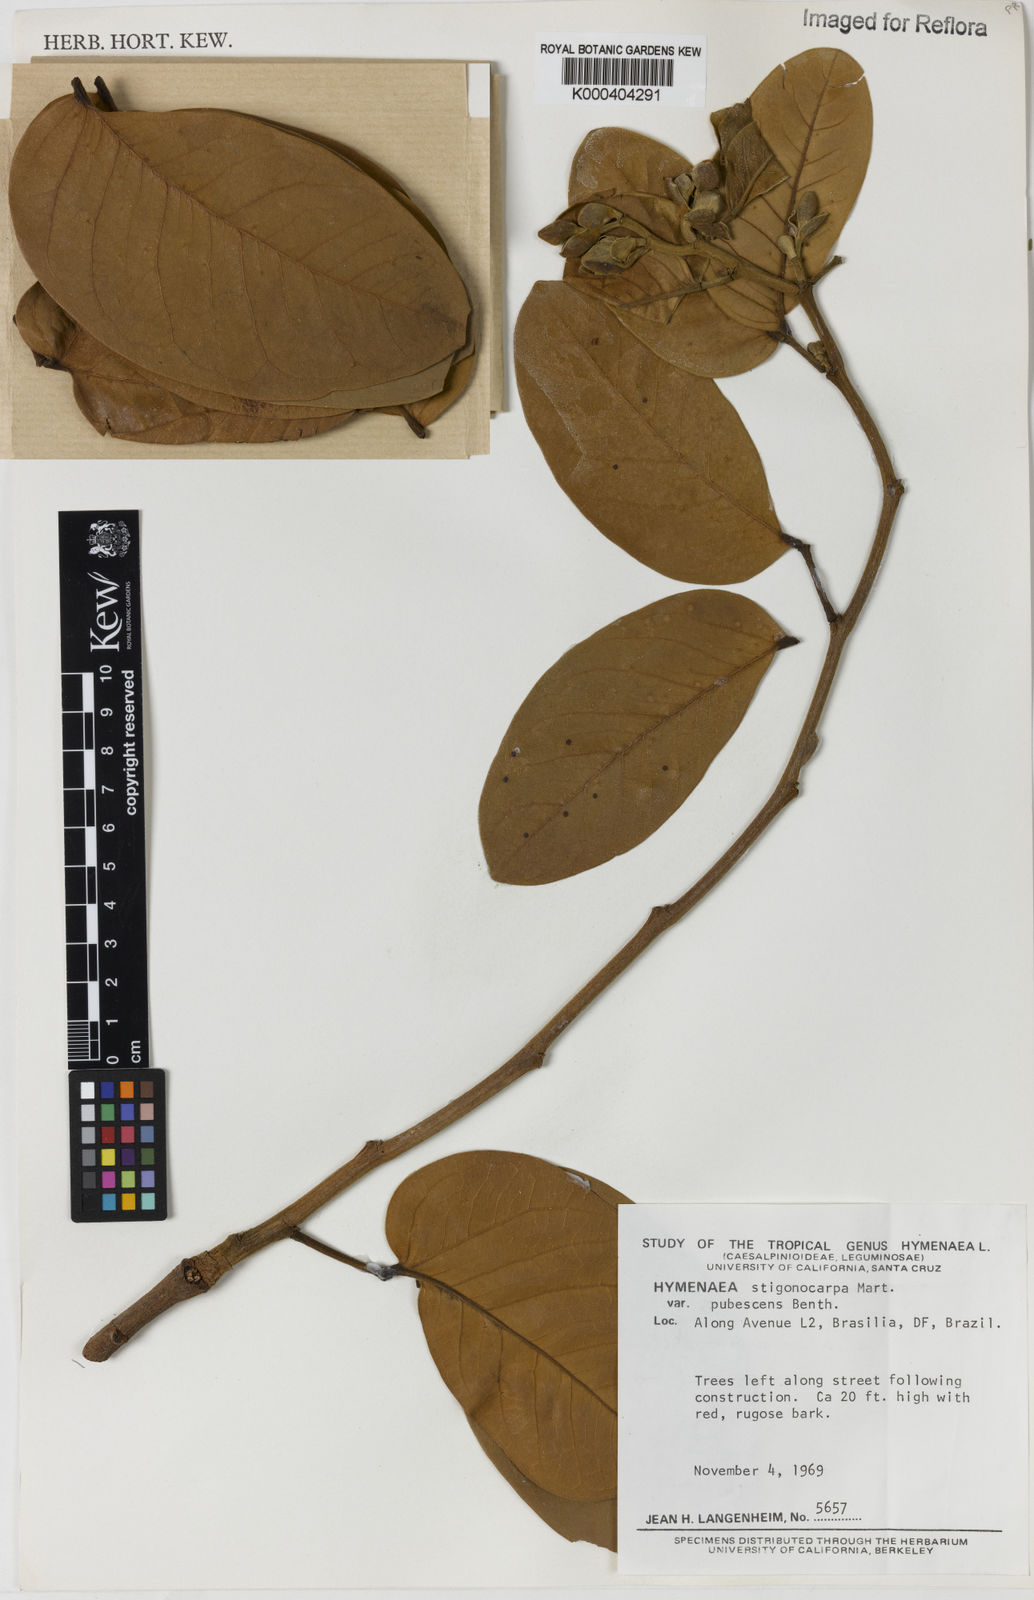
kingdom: Plantae
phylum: Tracheophyta
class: Magnoliopsida
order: Fabales
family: Fabaceae
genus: Hymenaea
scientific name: Hymenaea stigonocarpa
